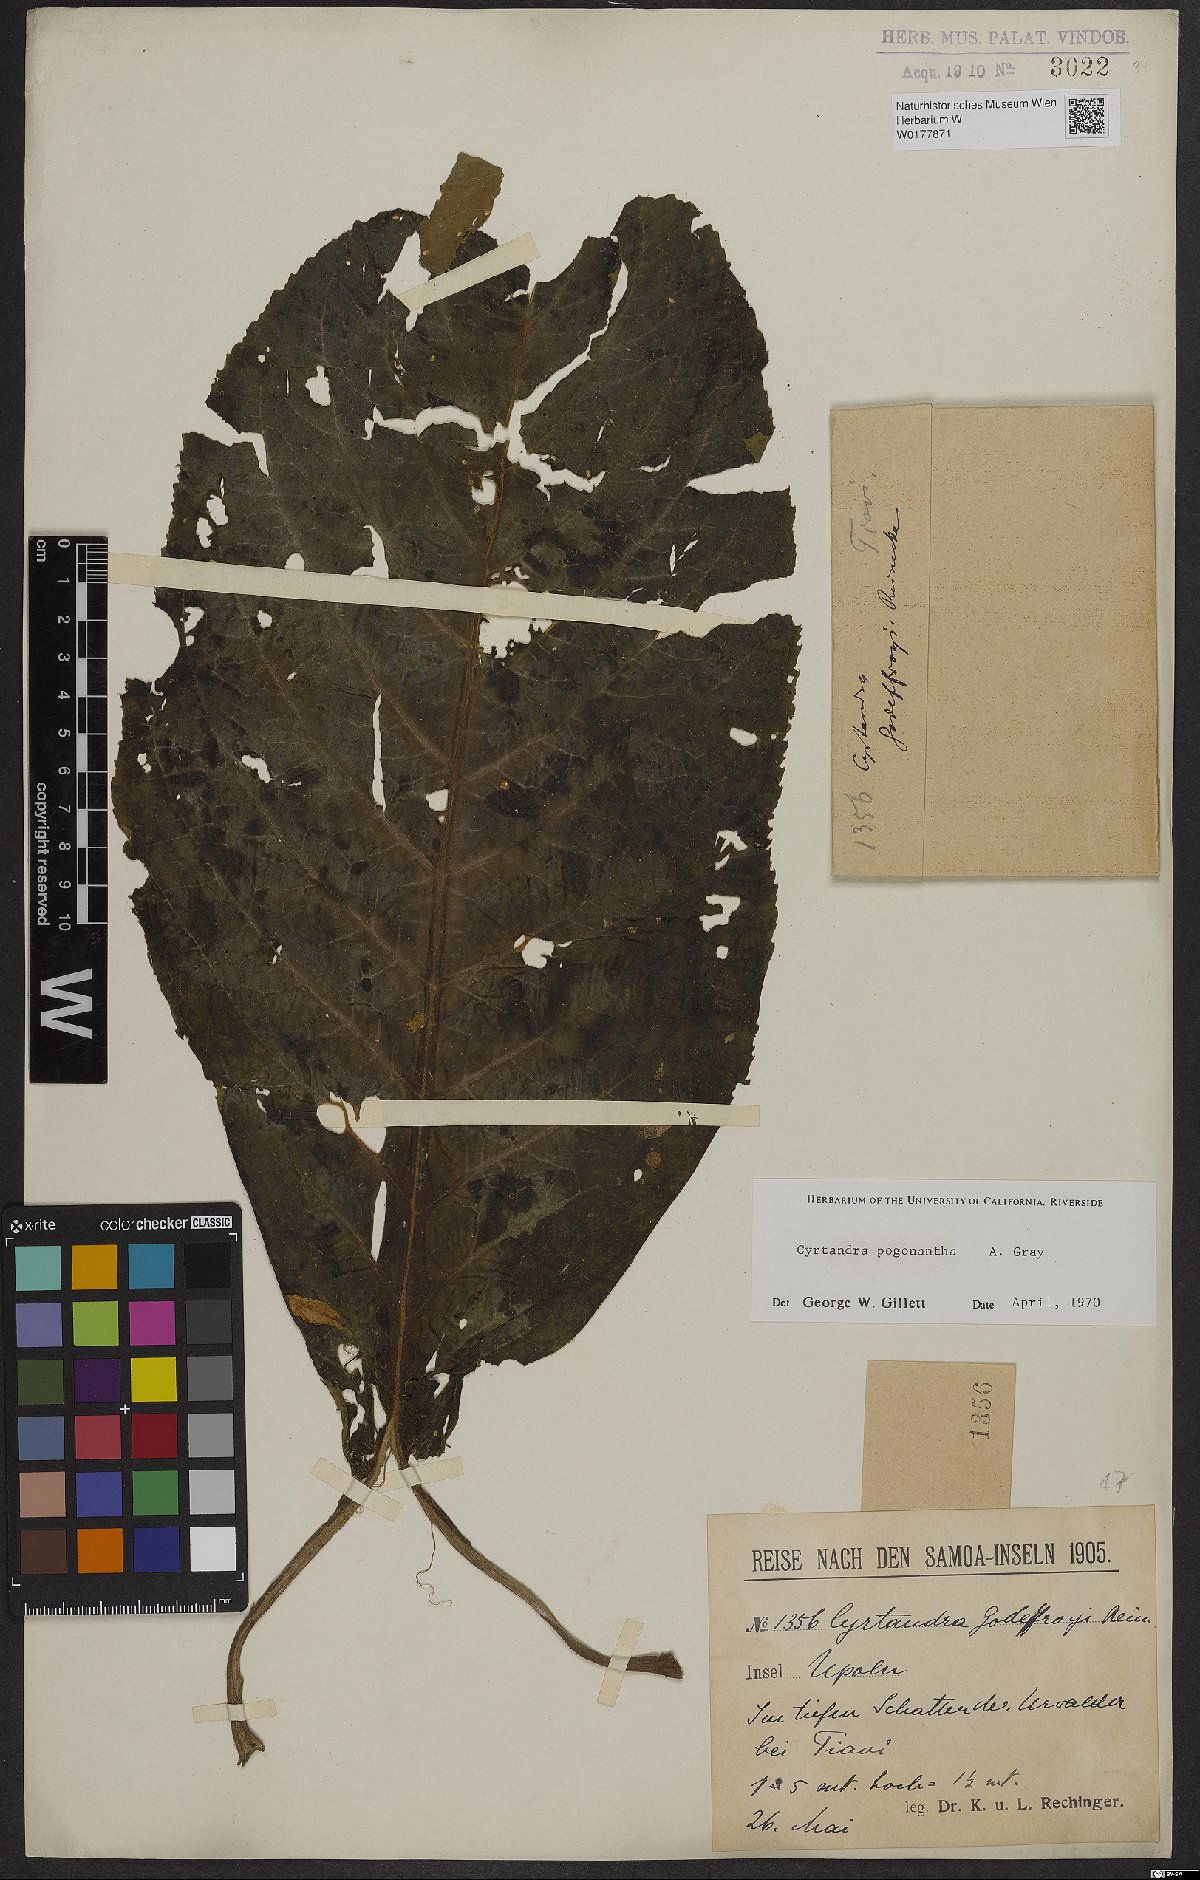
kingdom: Plantae
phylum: Tracheophyta
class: Magnoliopsida
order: Lamiales
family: Gesneriaceae
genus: Cyrtandra
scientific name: Cyrtandra pogonantha
